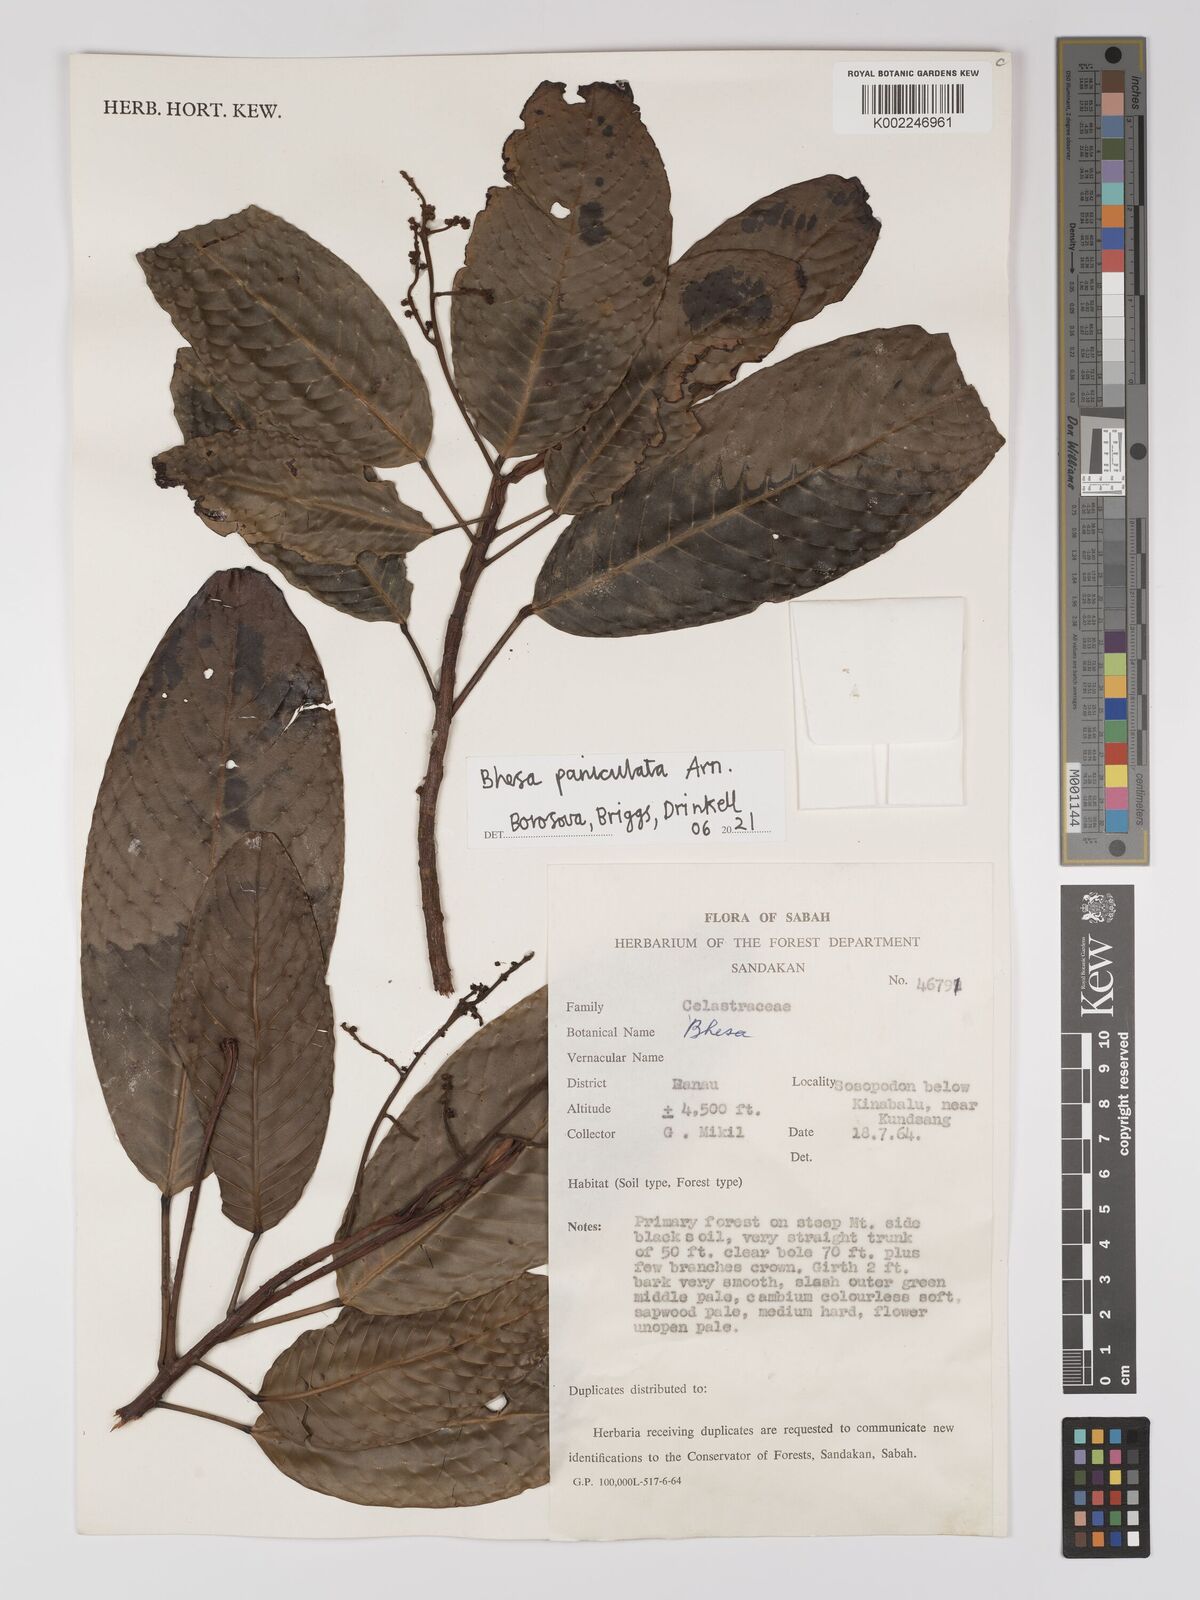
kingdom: Plantae
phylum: Tracheophyta
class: Magnoliopsida
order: Malpighiales
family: Centroplacaceae
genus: Bhesa
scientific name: Bhesa
